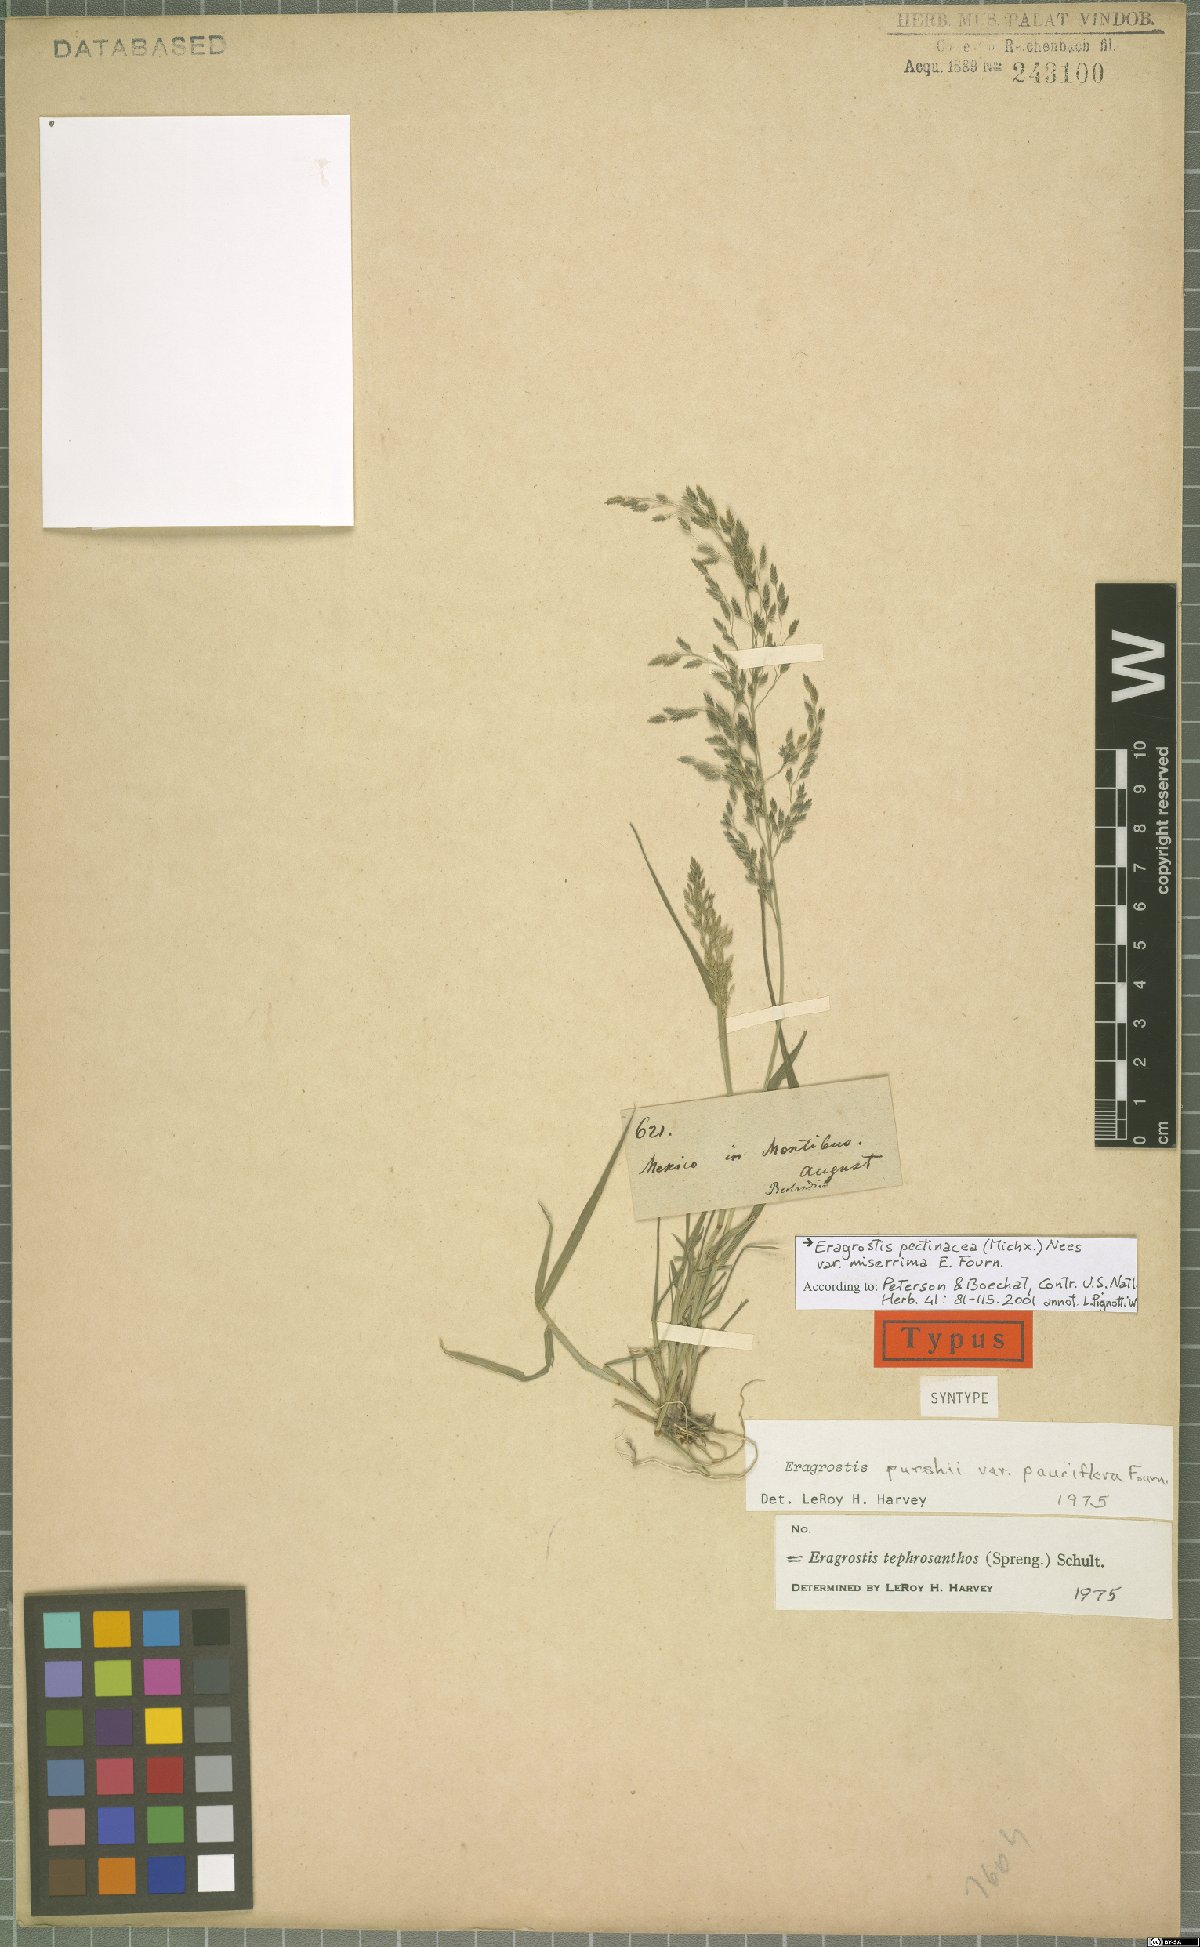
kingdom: Plantae
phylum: Tracheophyta
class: Liliopsida
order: Poales
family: Poaceae
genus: Eragrostis
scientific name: Eragrostis tephrosanthos
